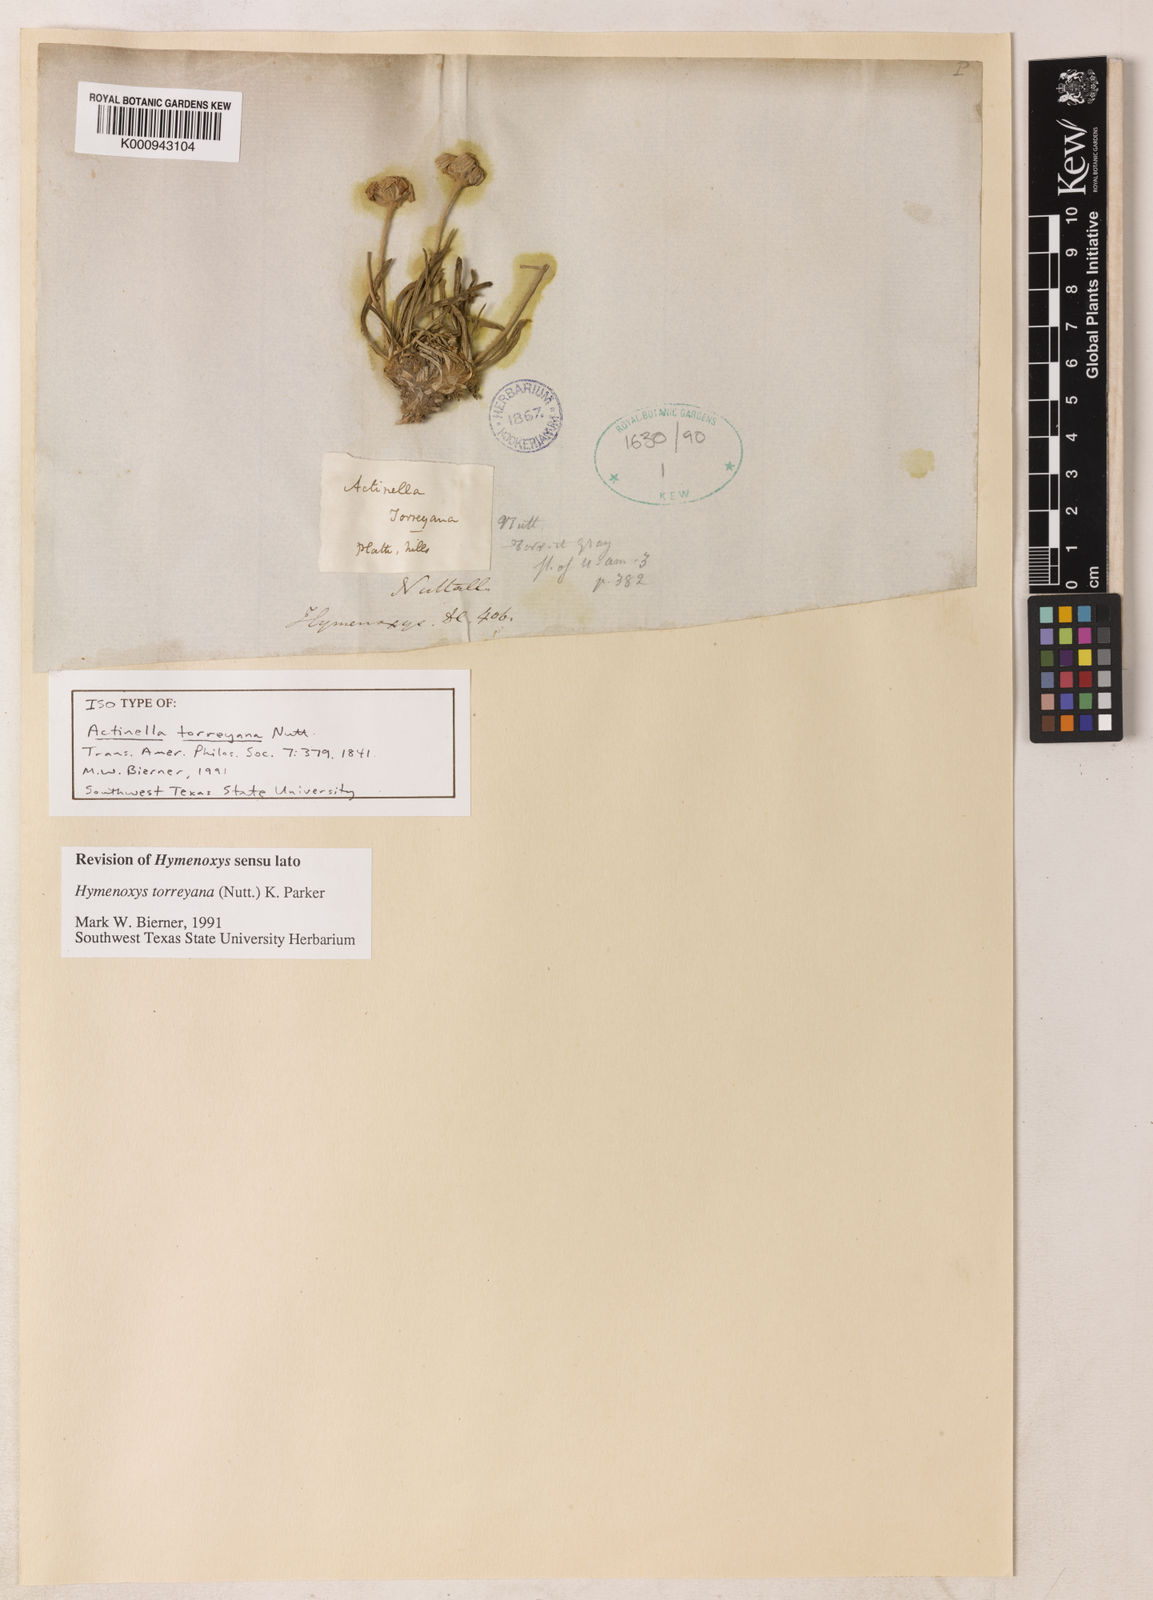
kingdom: Plantae
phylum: Tracheophyta
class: Magnoliopsida
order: Asterales
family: Asteraceae
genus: Tetraneuris
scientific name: Tetraneuris torreyana
